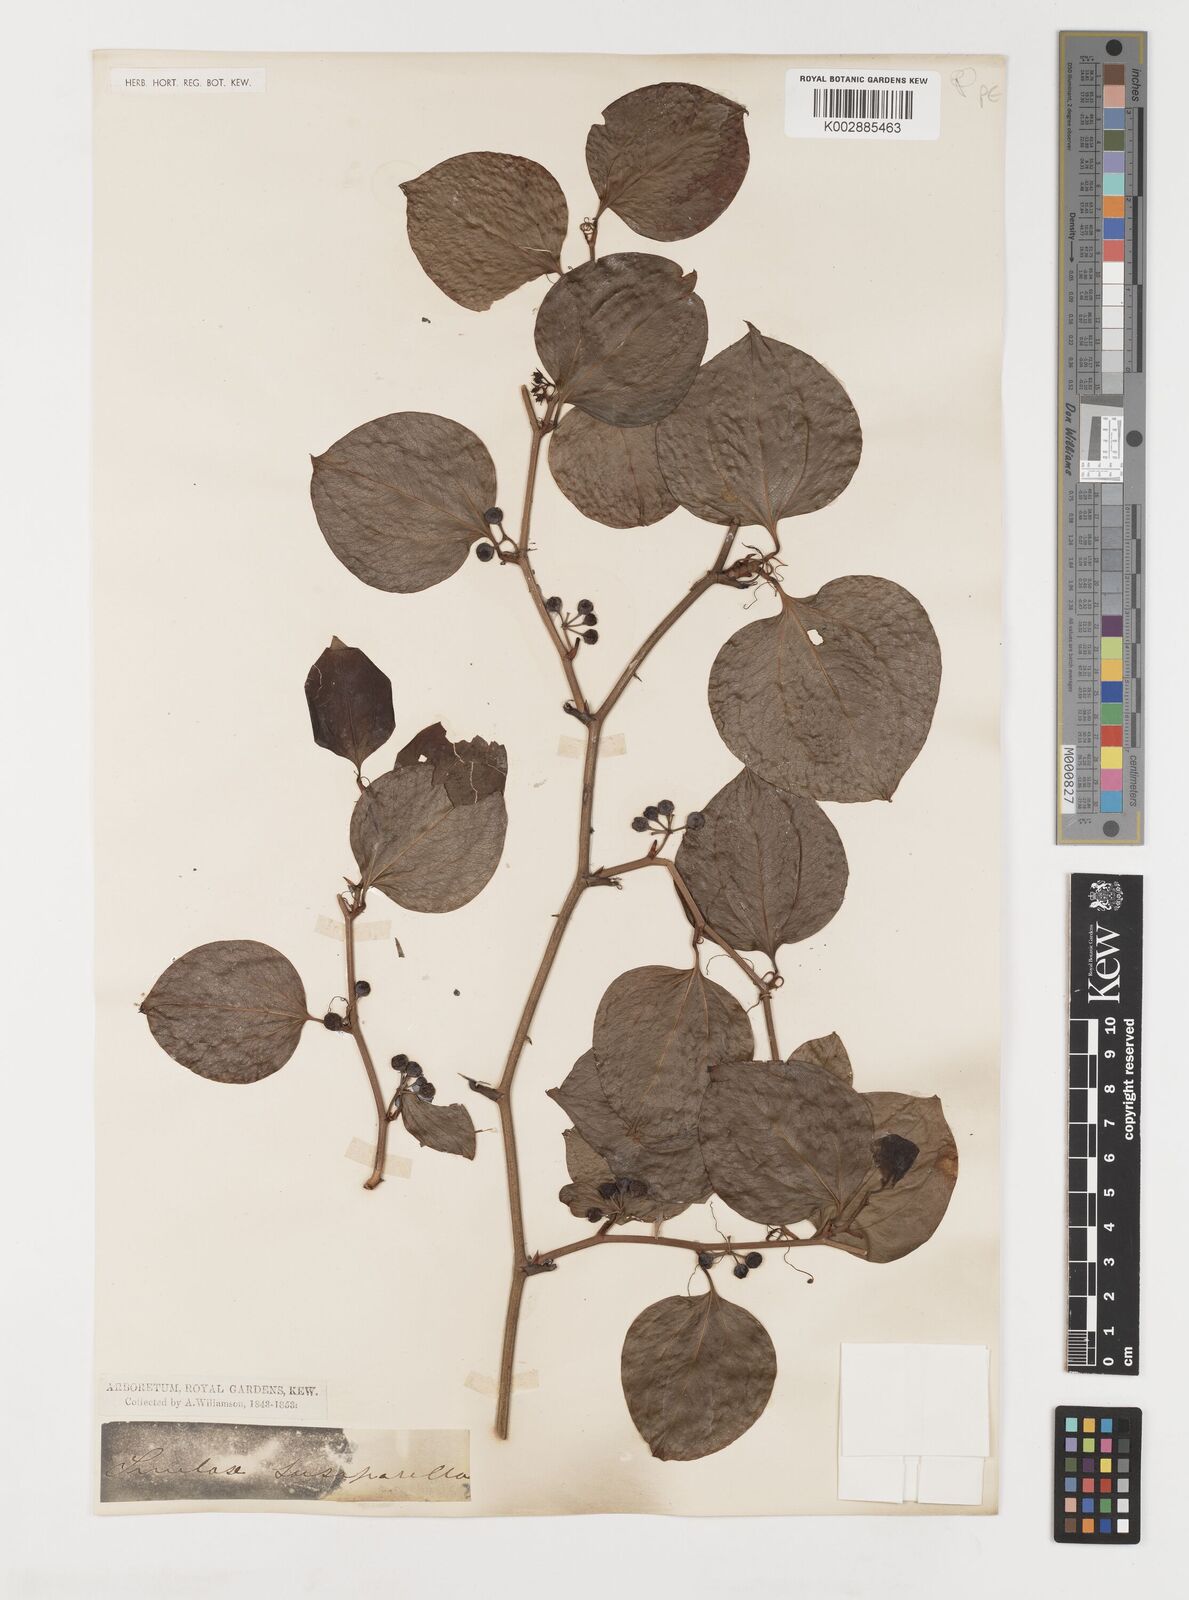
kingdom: Plantae
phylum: Tracheophyta
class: Liliopsida
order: Liliales
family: Smilacaceae
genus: Smilax
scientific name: Smilax glauca
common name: Cat greenbrier
